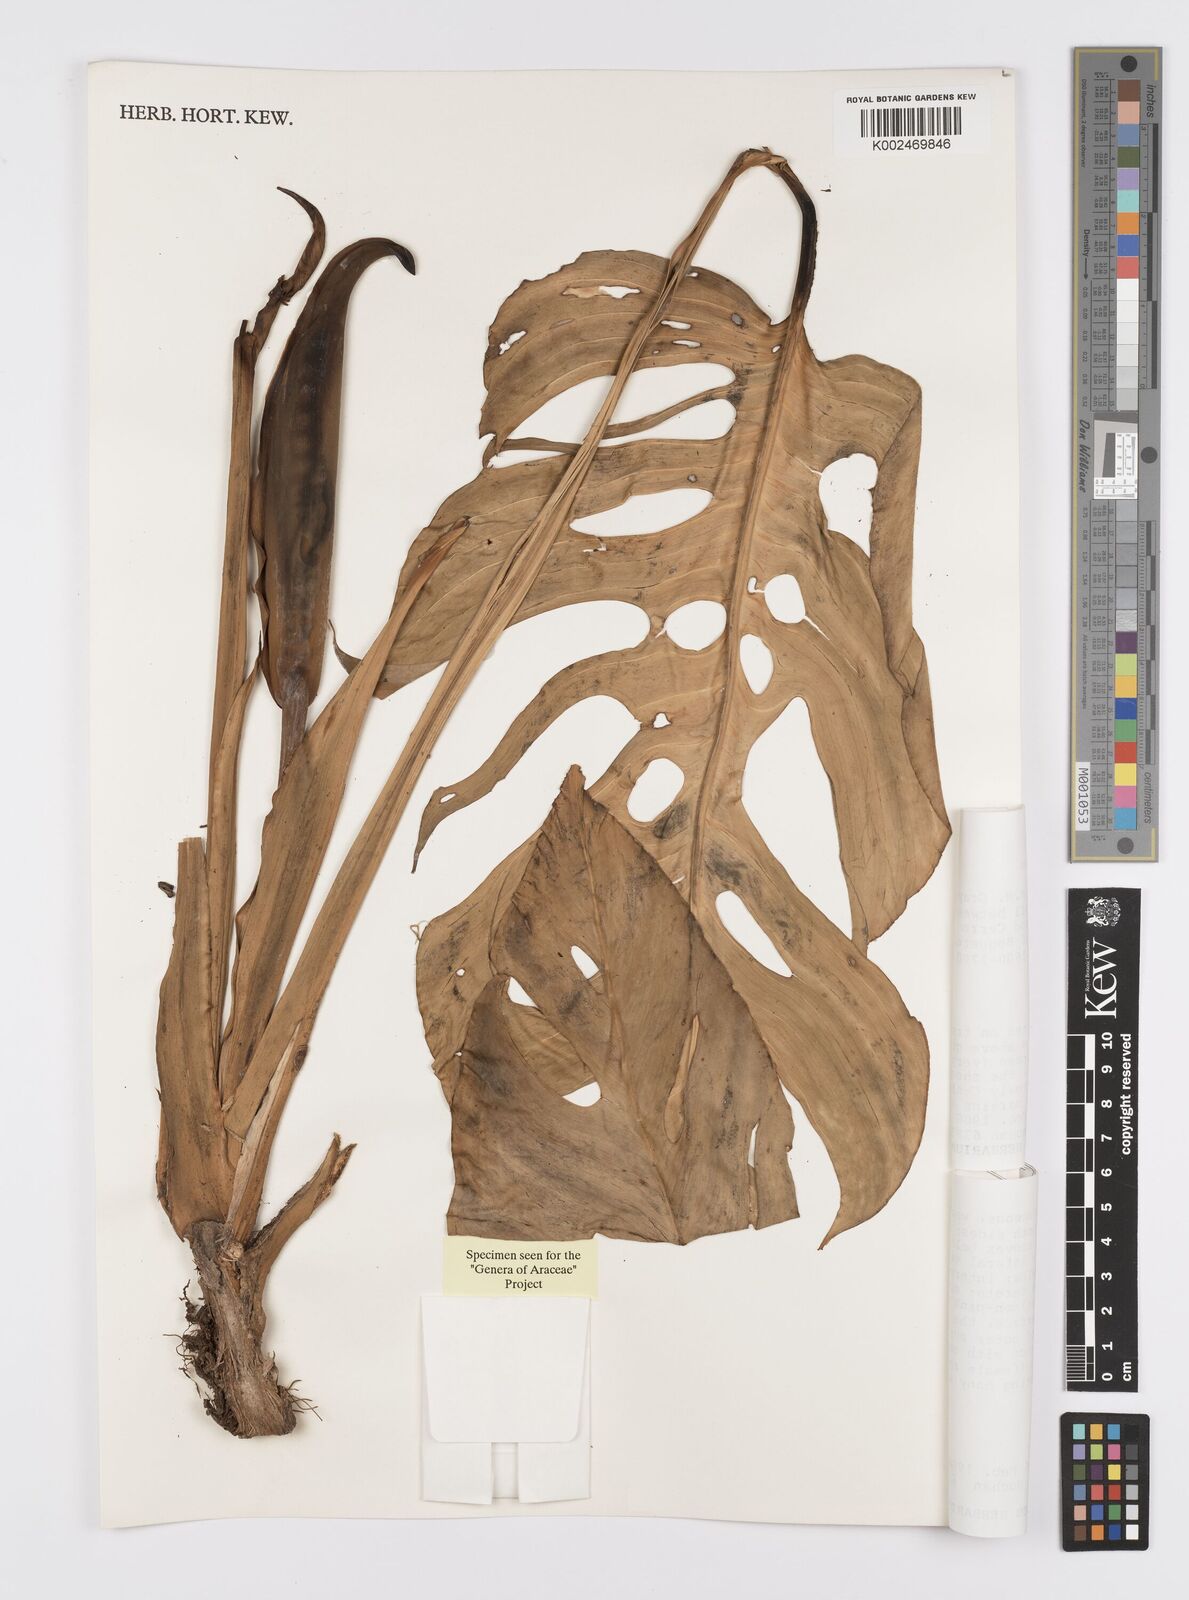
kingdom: Plantae
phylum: Tracheophyta
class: Liliopsida
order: Alismatales
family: Araceae
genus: Monstera
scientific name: Monstera oreophila
